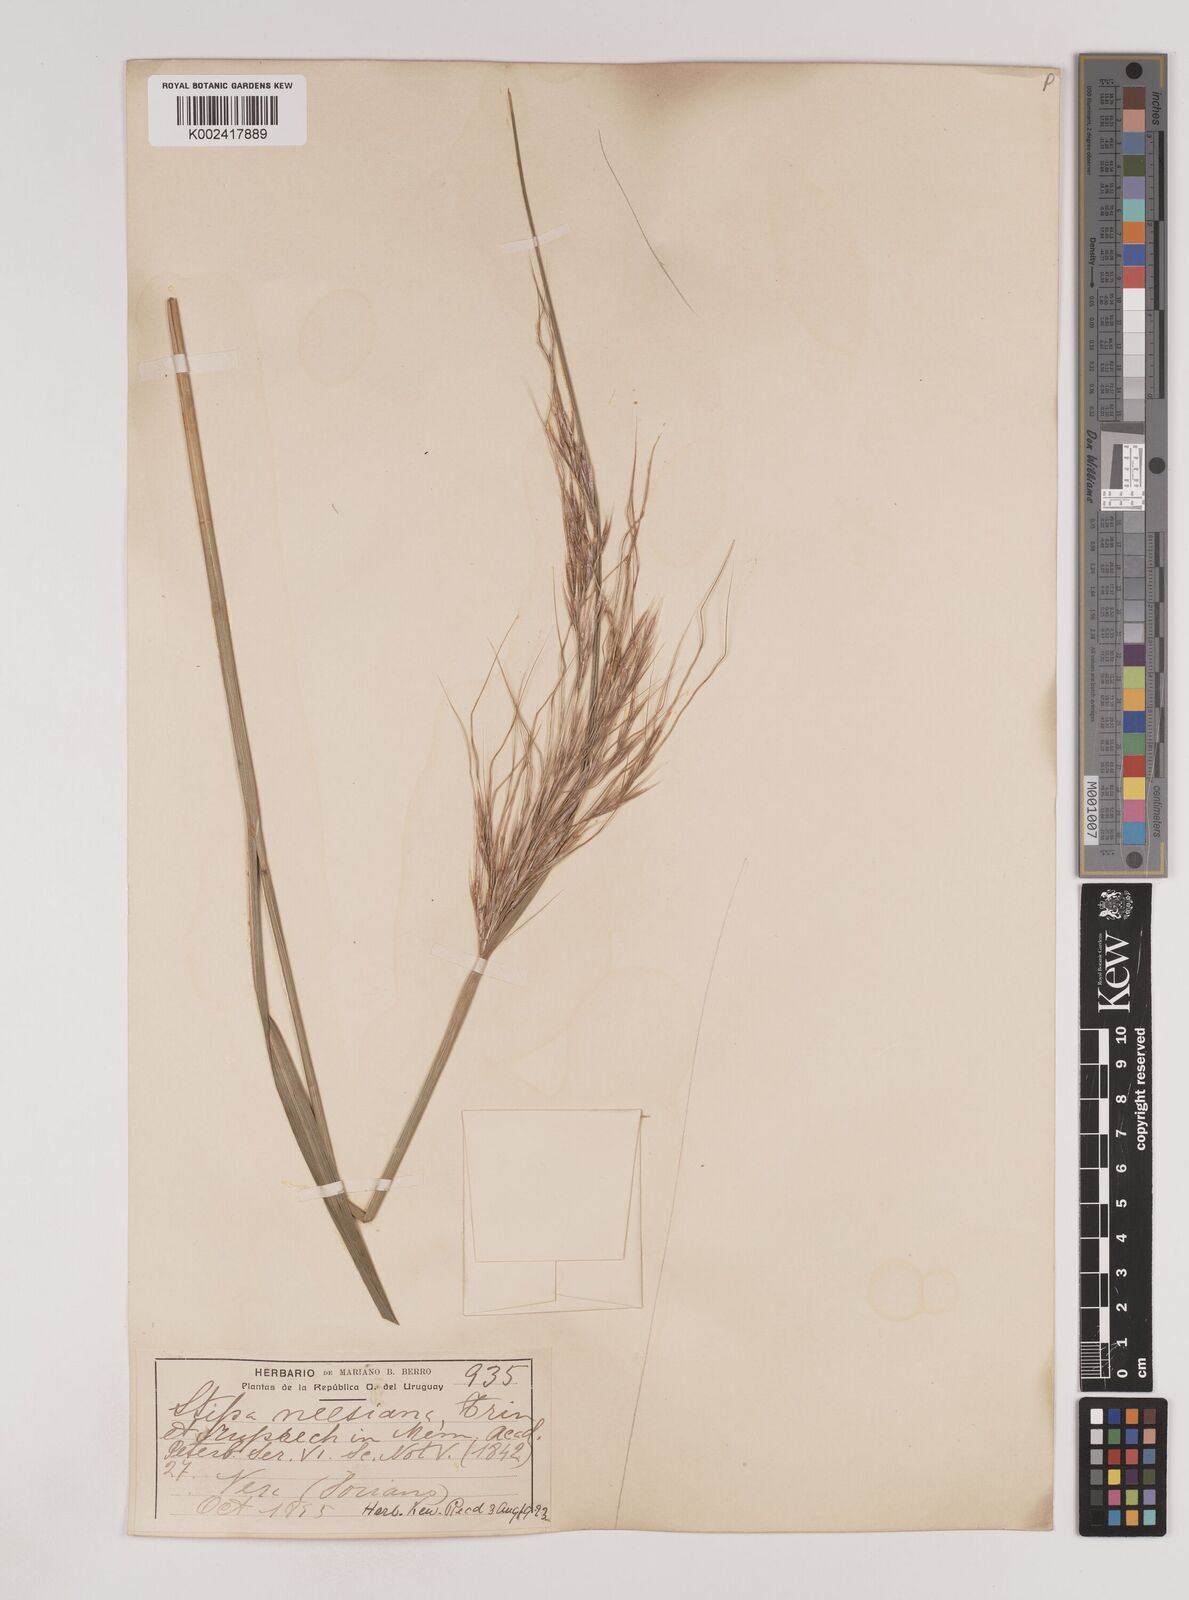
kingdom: Plantae
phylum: Tracheophyta
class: Liliopsida
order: Poales
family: Poaceae
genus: Nassella
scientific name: Nassella neesiana
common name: American needle-grass
